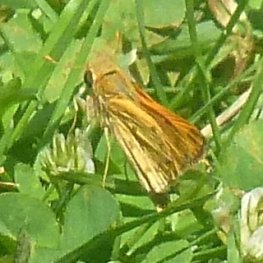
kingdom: Animalia
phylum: Arthropoda
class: Insecta
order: Lepidoptera
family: Hesperiidae
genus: Hylephila
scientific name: Hylephila phyleus
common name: Fiery Skipper
